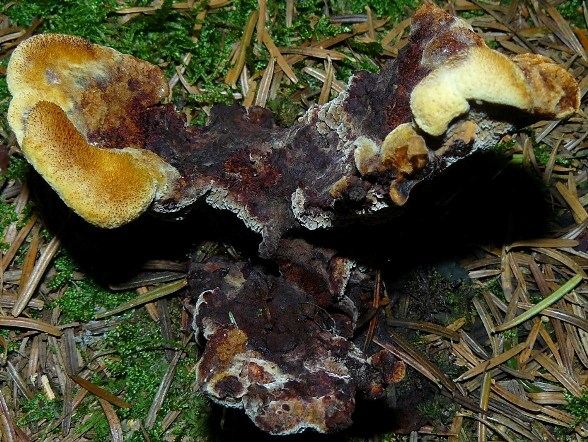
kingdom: Fungi
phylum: Basidiomycota
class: Agaricomycetes
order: Polyporales
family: Laetiporaceae
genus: Phaeolus
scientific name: Phaeolus schweinitzii
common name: brunporesvamp
